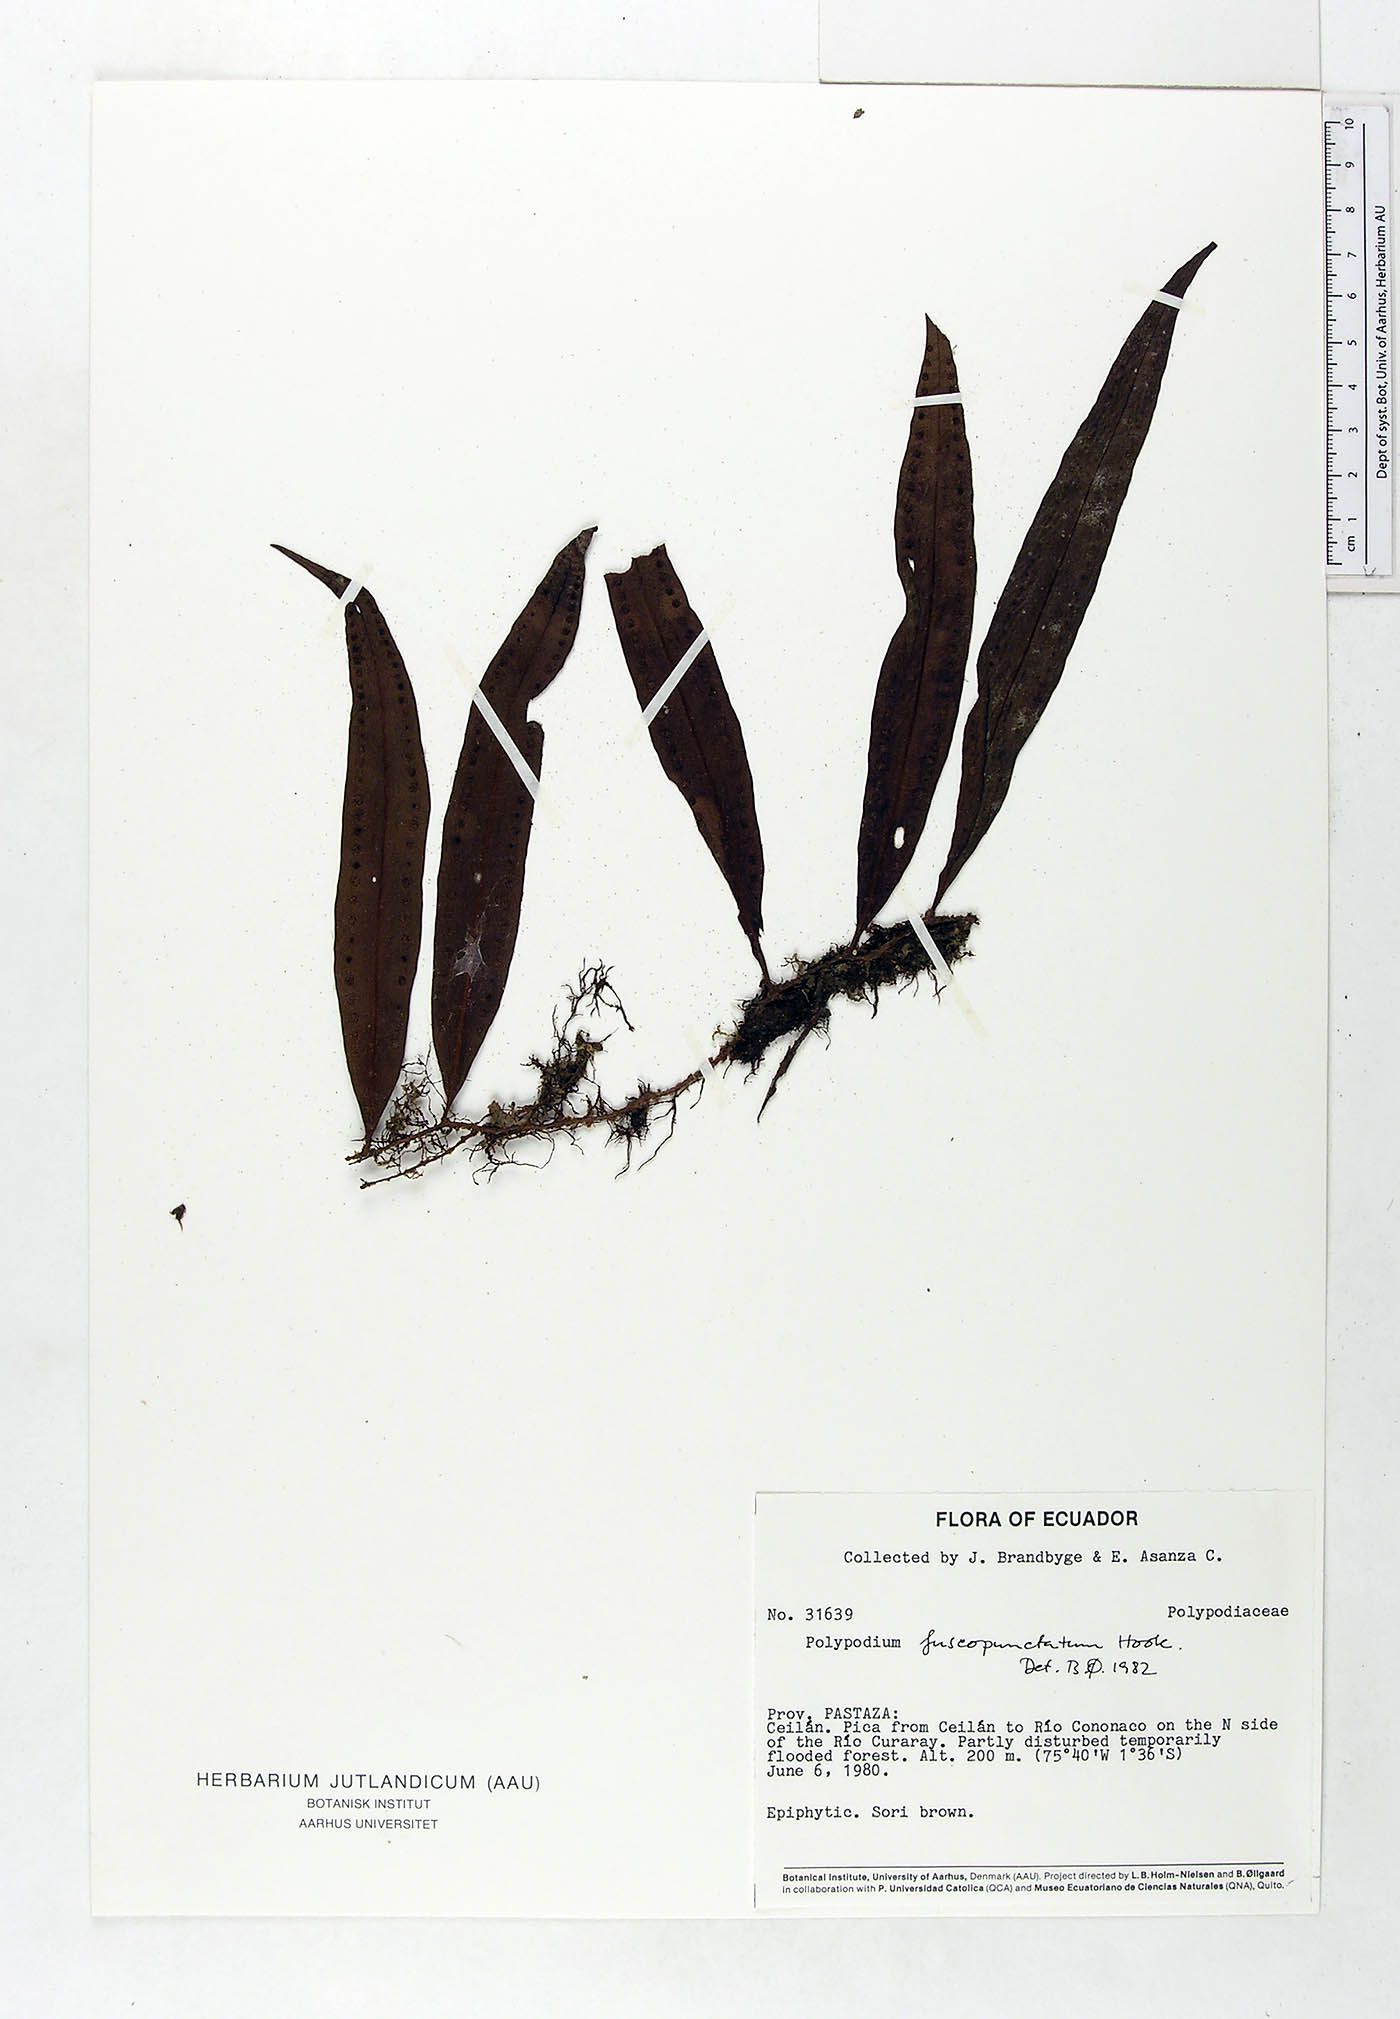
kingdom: Plantae
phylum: Tracheophyta
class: Polypodiopsida
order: Polypodiales
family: Polypodiaceae
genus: Microgramma
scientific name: Microgramma dictyophylla
